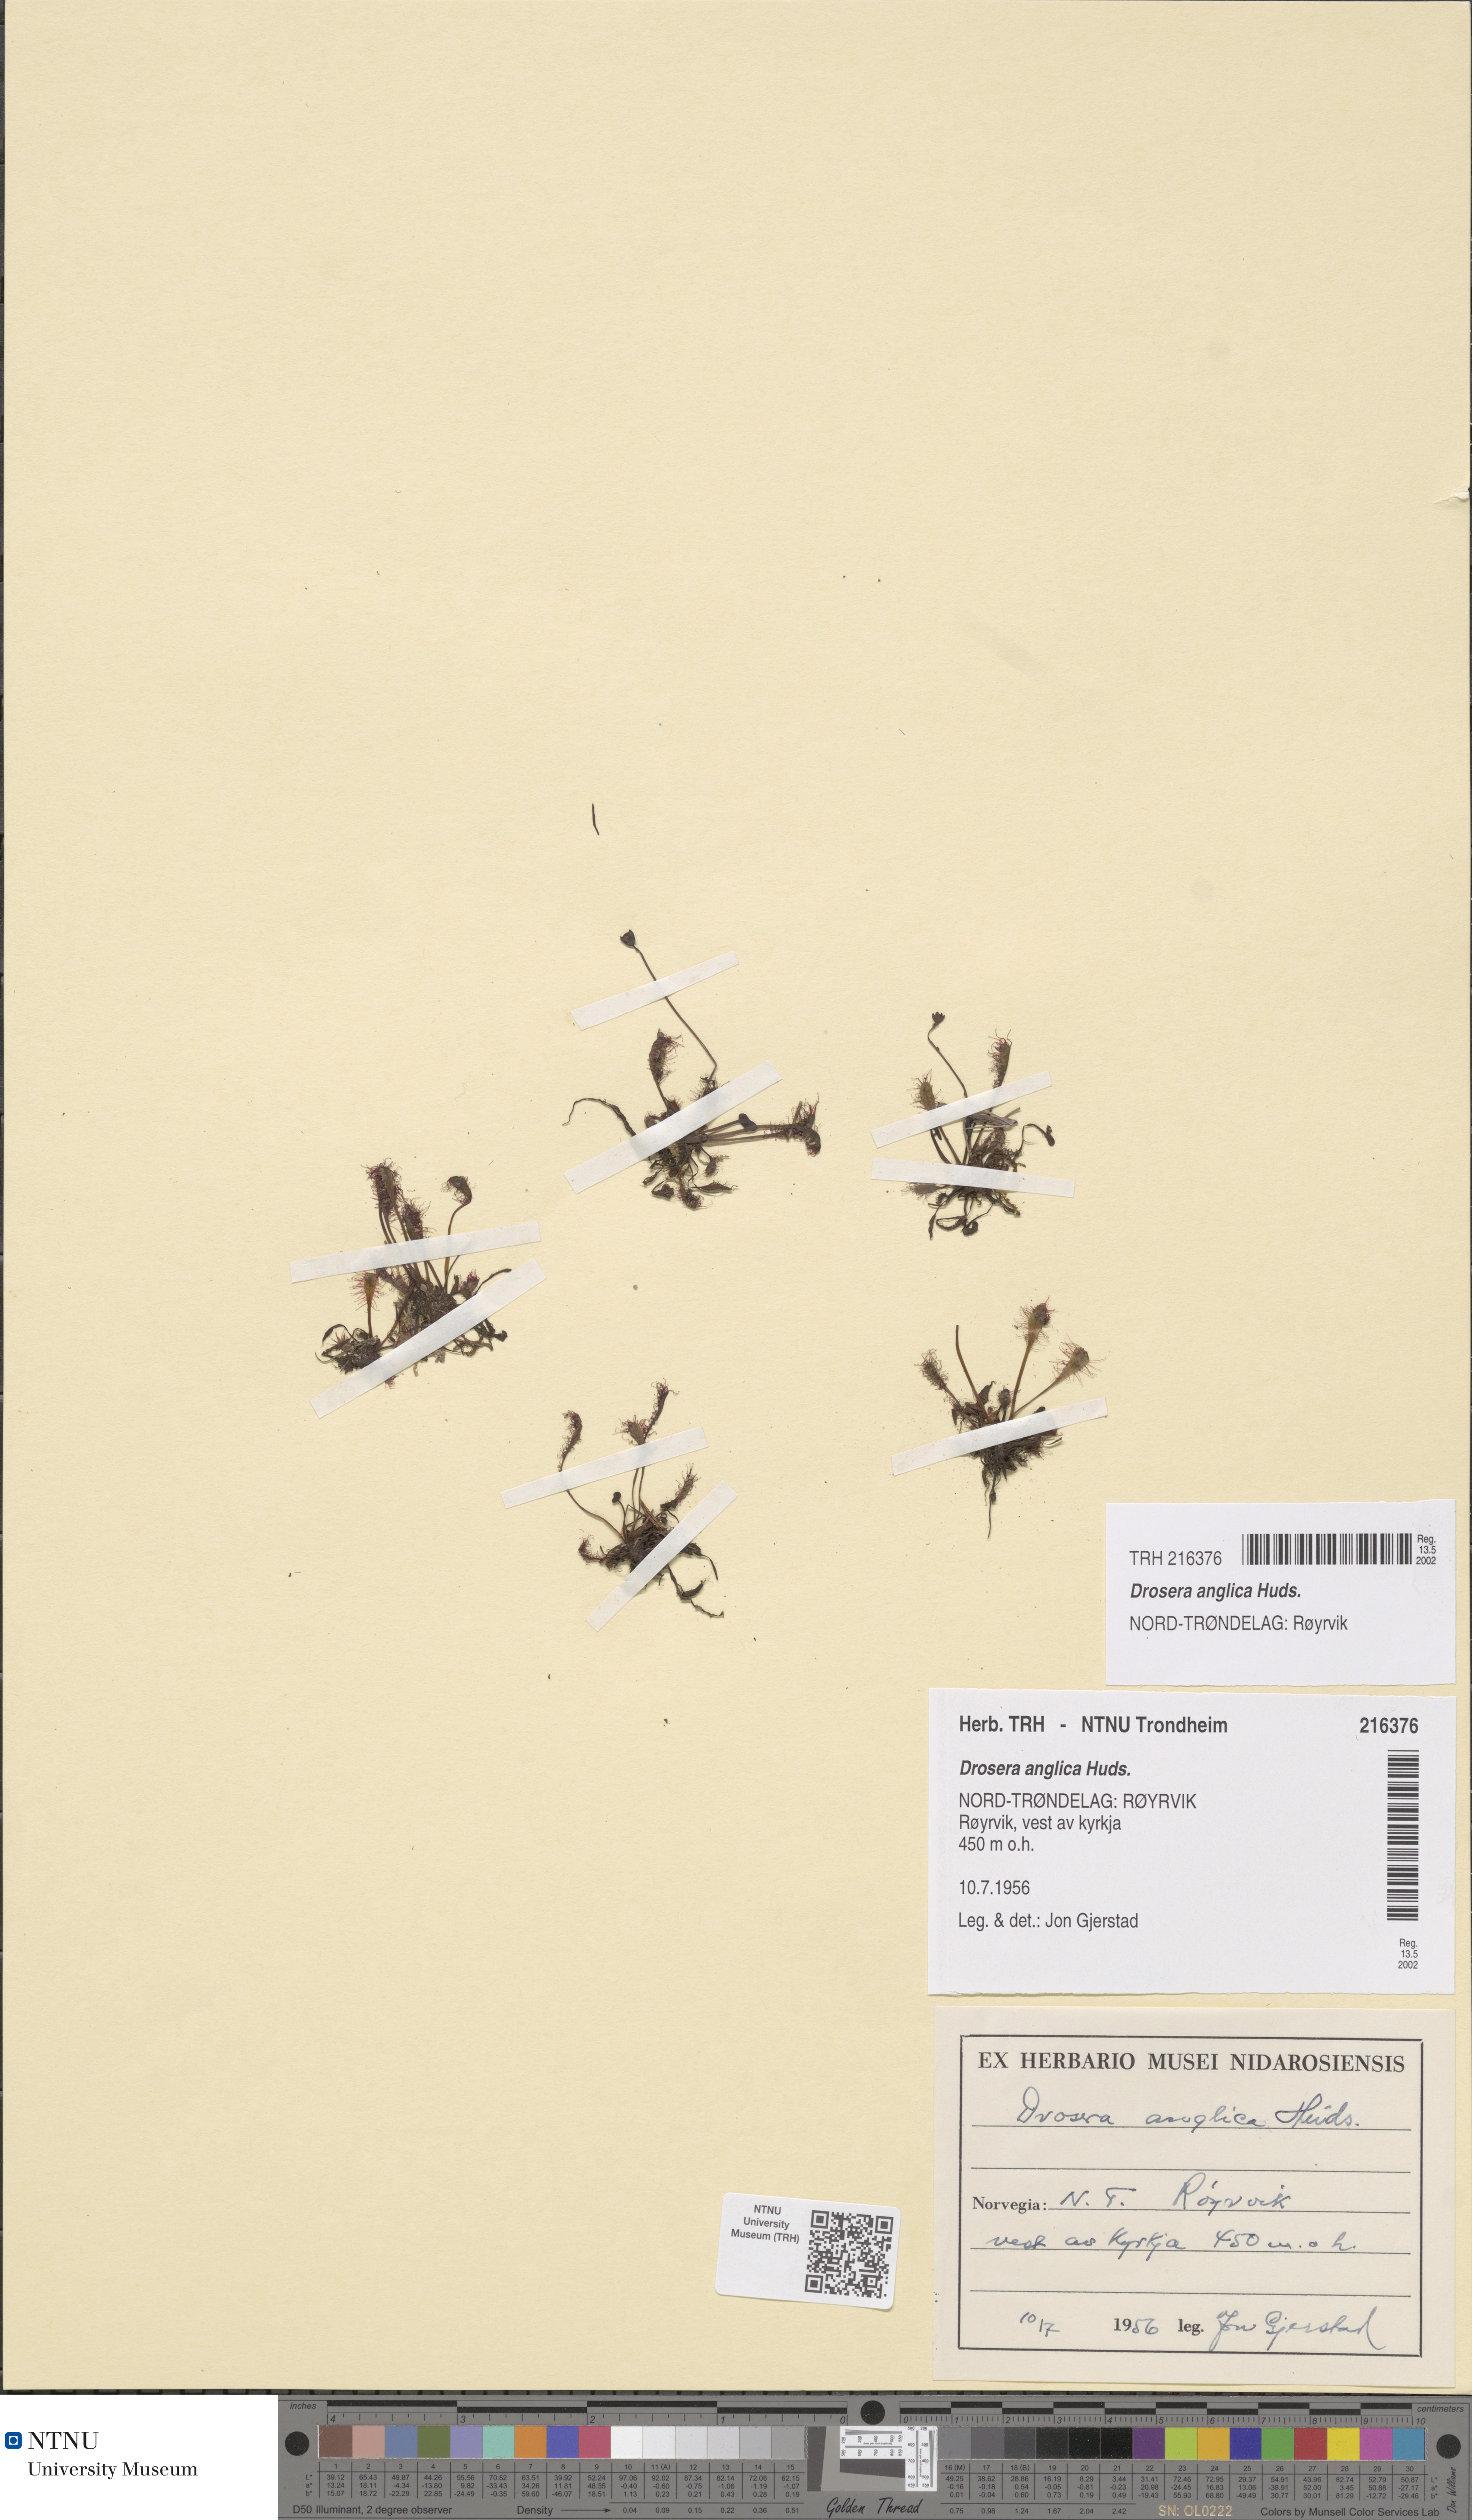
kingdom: Plantae
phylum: Tracheophyta
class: Magnoliopsida
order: Caryophyllales
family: Droseraceae
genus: Drosera
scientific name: Drosera anglica
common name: Great sundew
